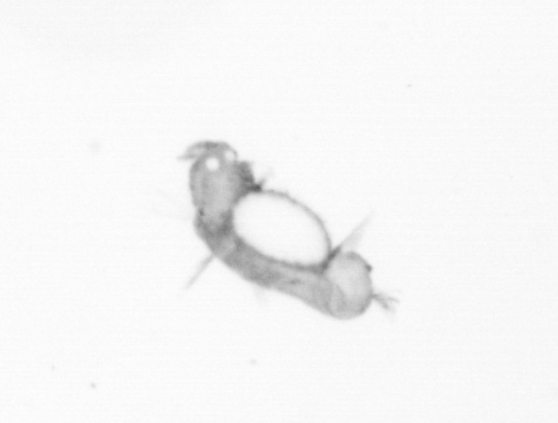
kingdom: Animalia
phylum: Annelida
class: Polychaeta
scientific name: Polychaeta
